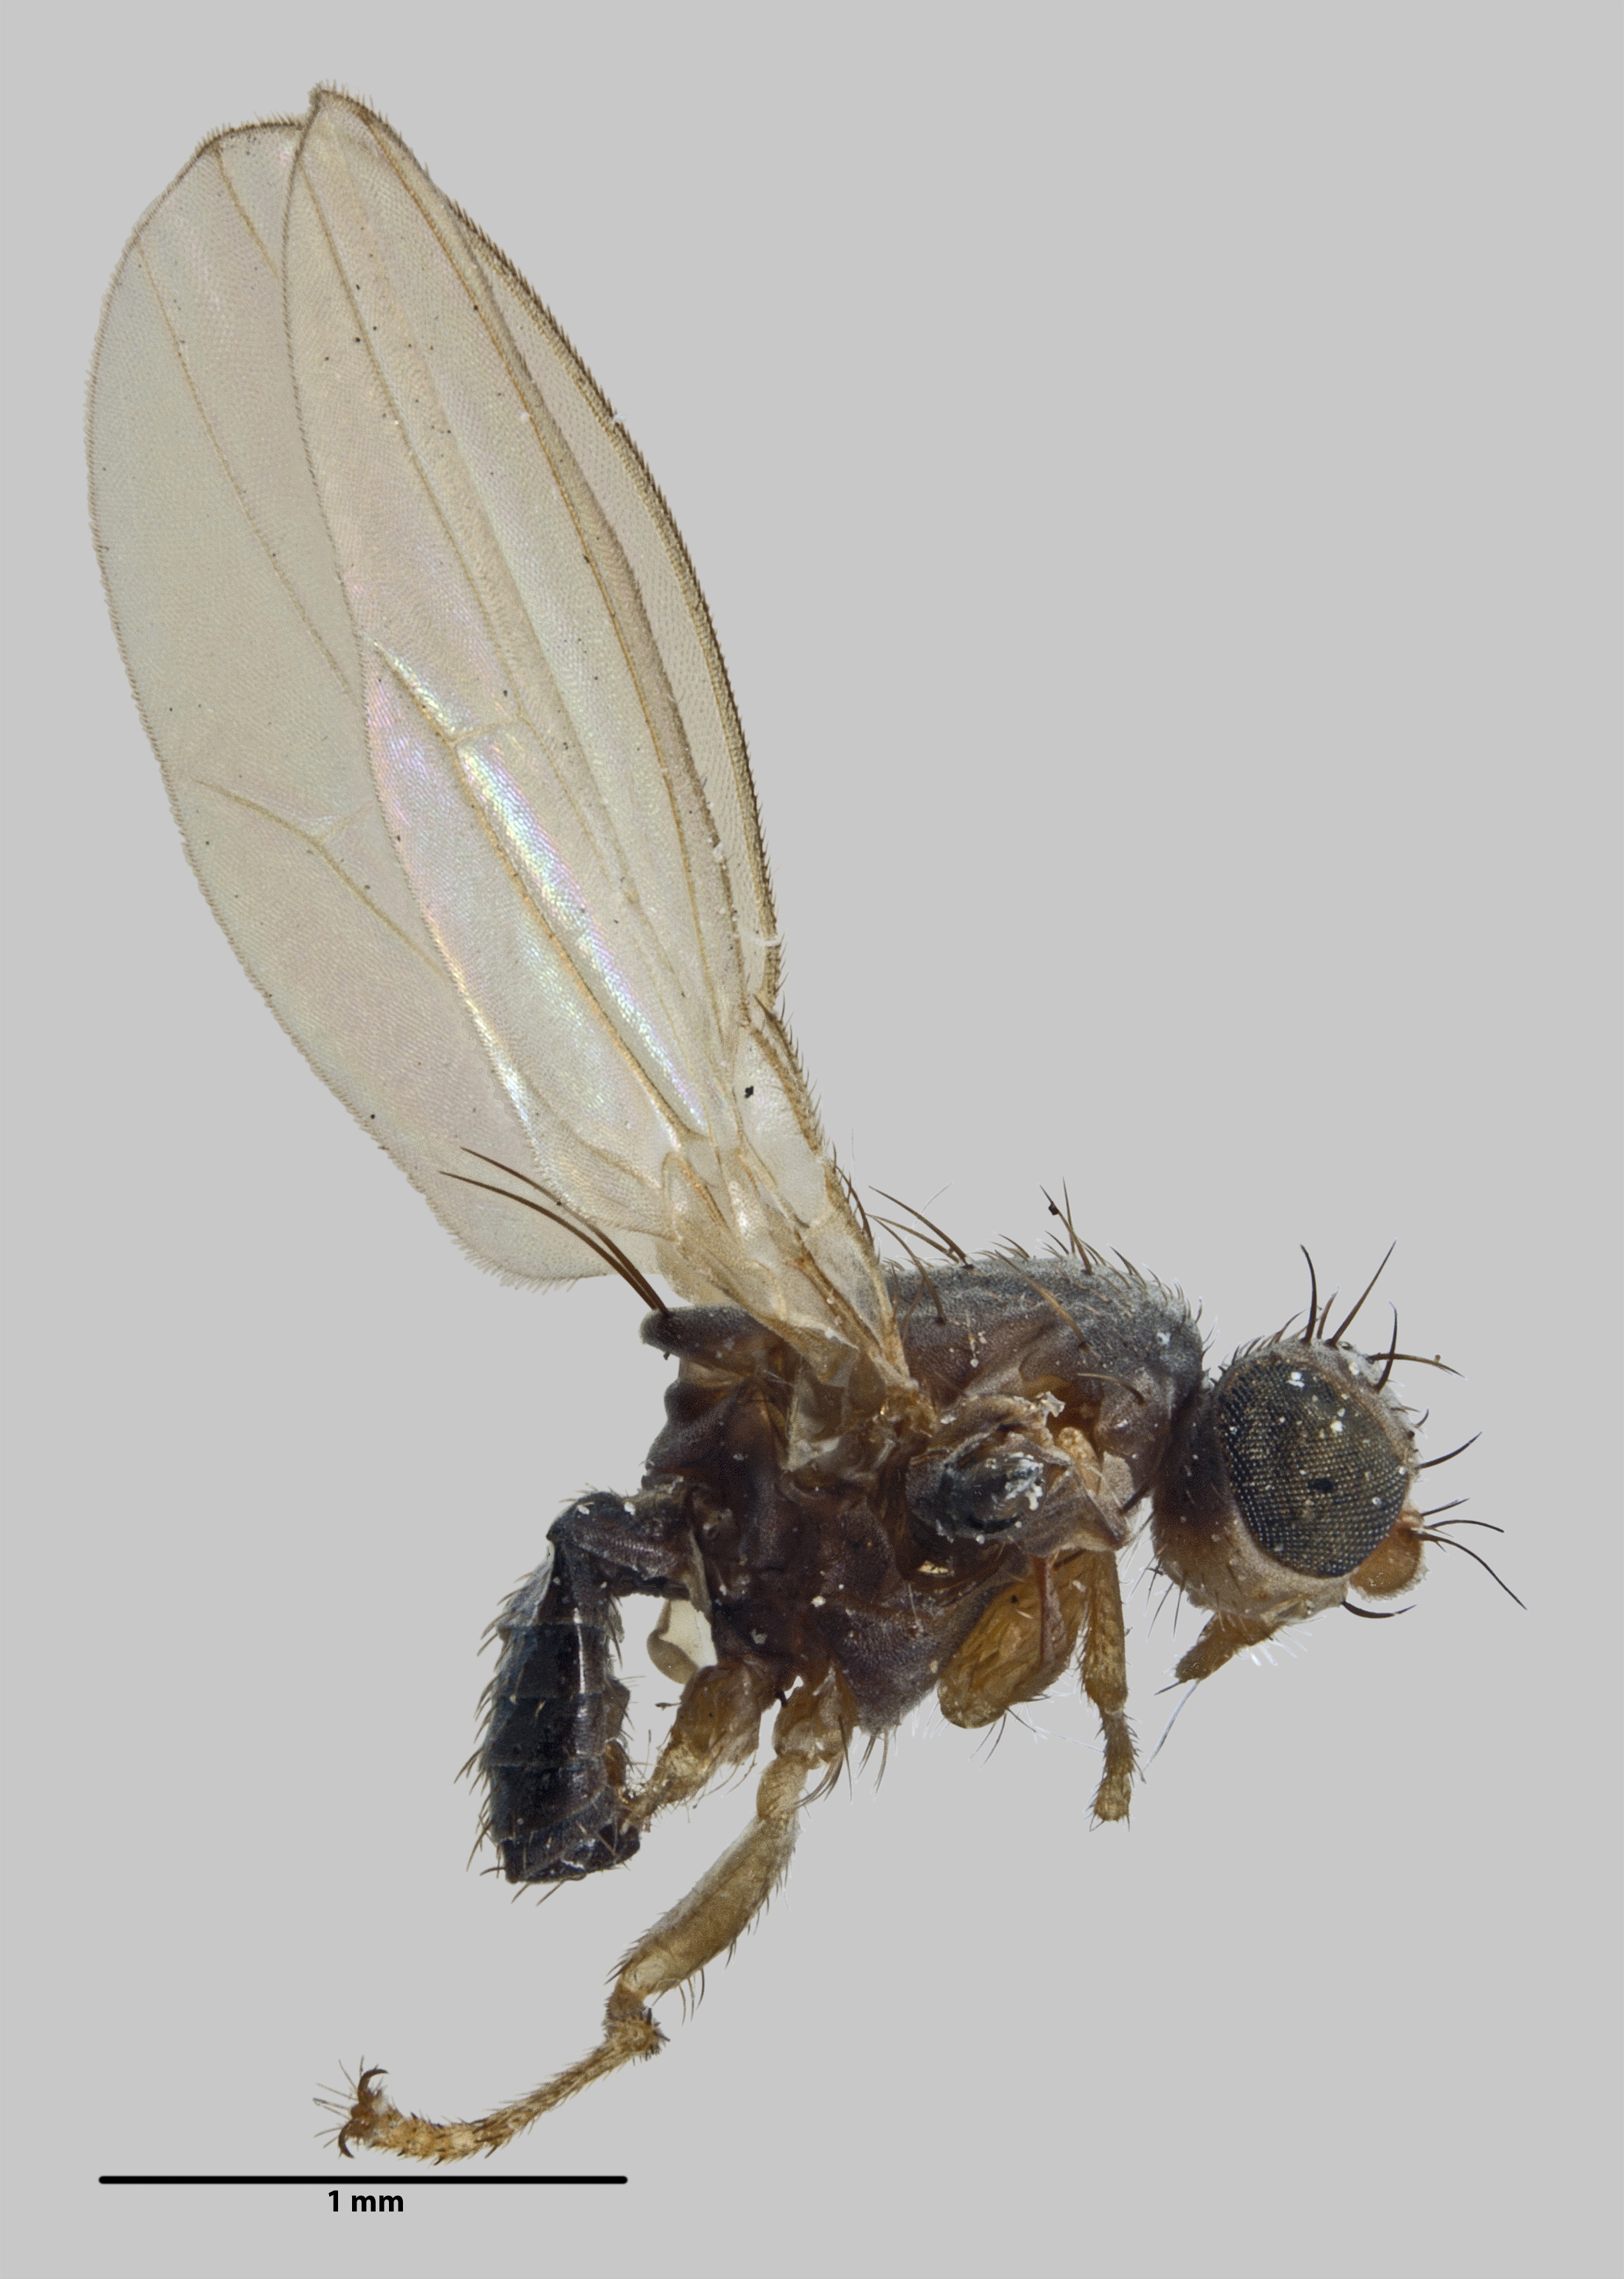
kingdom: Animalia
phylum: Arthropoda
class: Insecta
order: Diptera
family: Australimyzidae
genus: Australimyza
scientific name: Australimyza australensis
